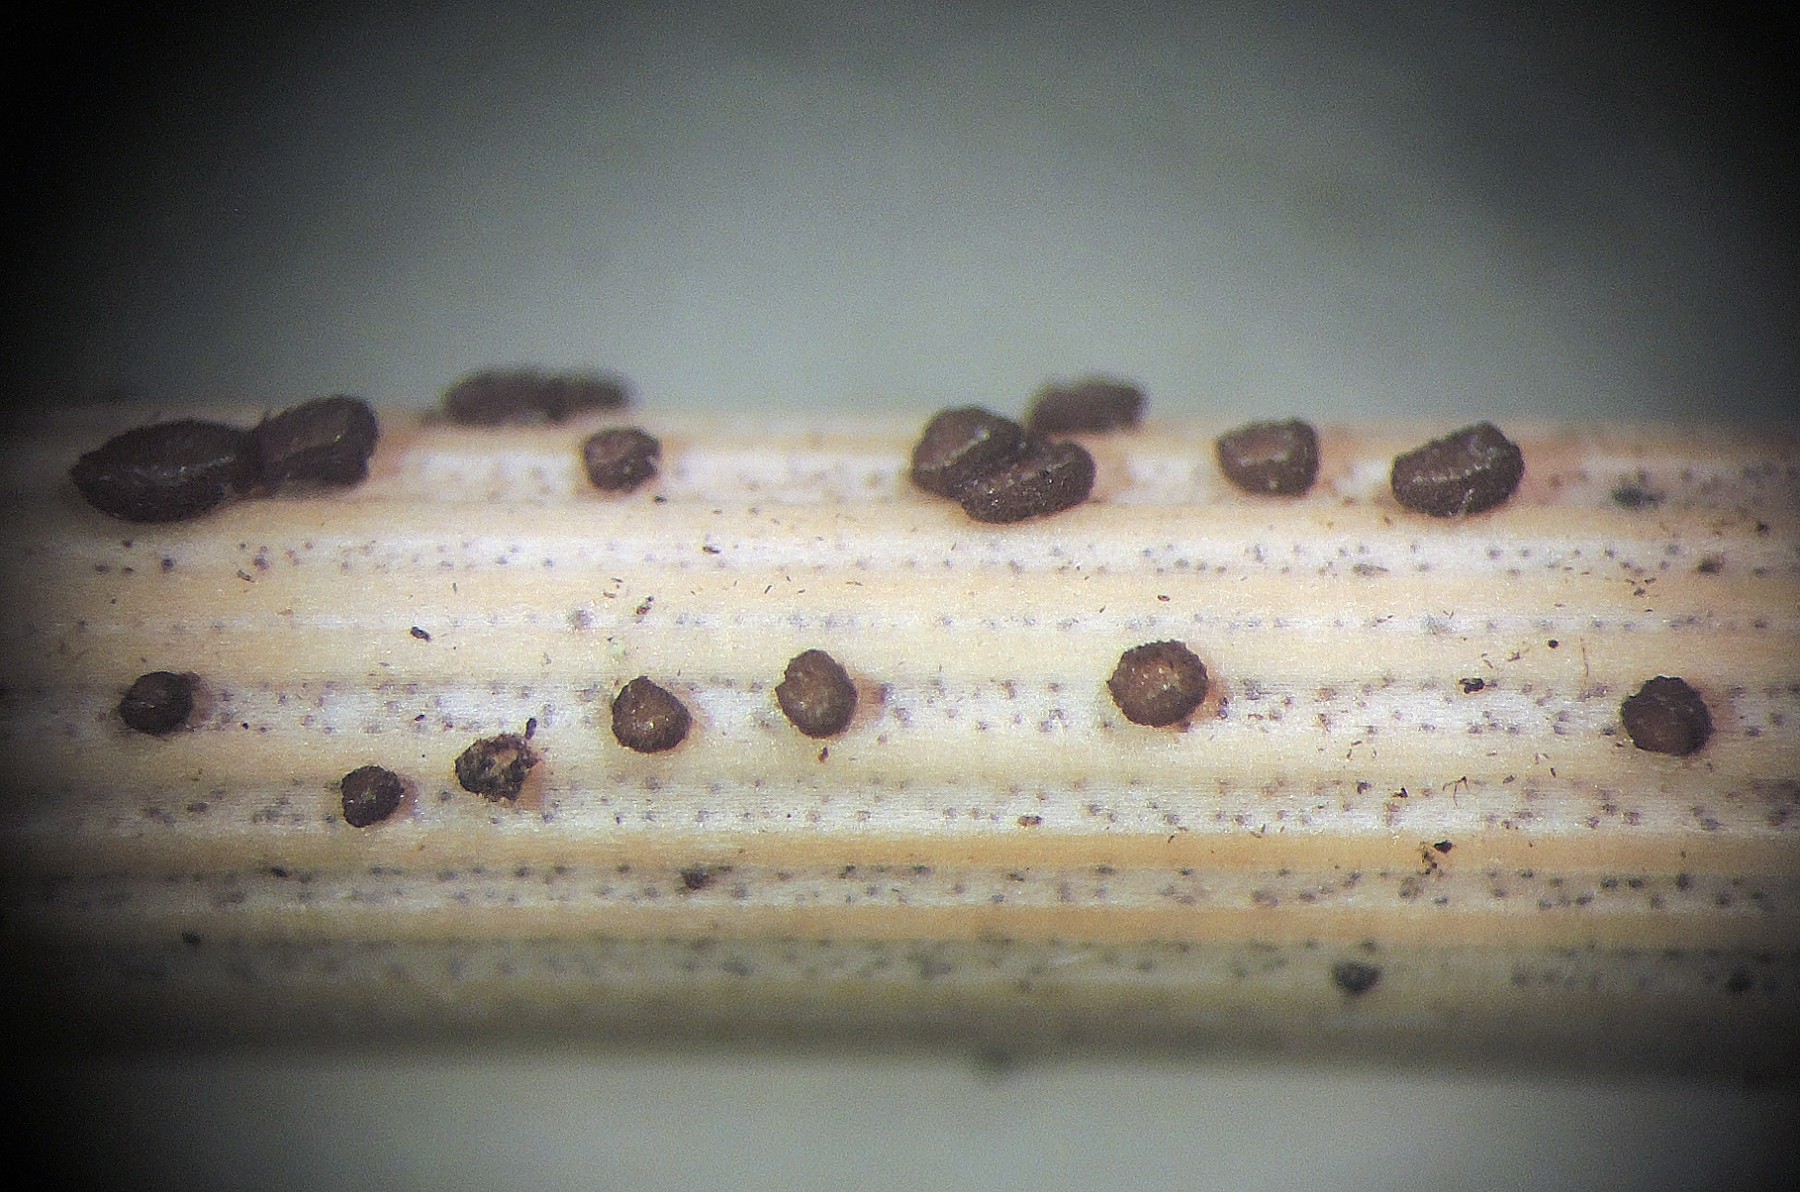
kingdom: Fungi
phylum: Ascomycota
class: Leotiomycetes
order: Helotiales
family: Mollisiaceae
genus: Nimbomollisia
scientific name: Nimbomollisia melatephroides
